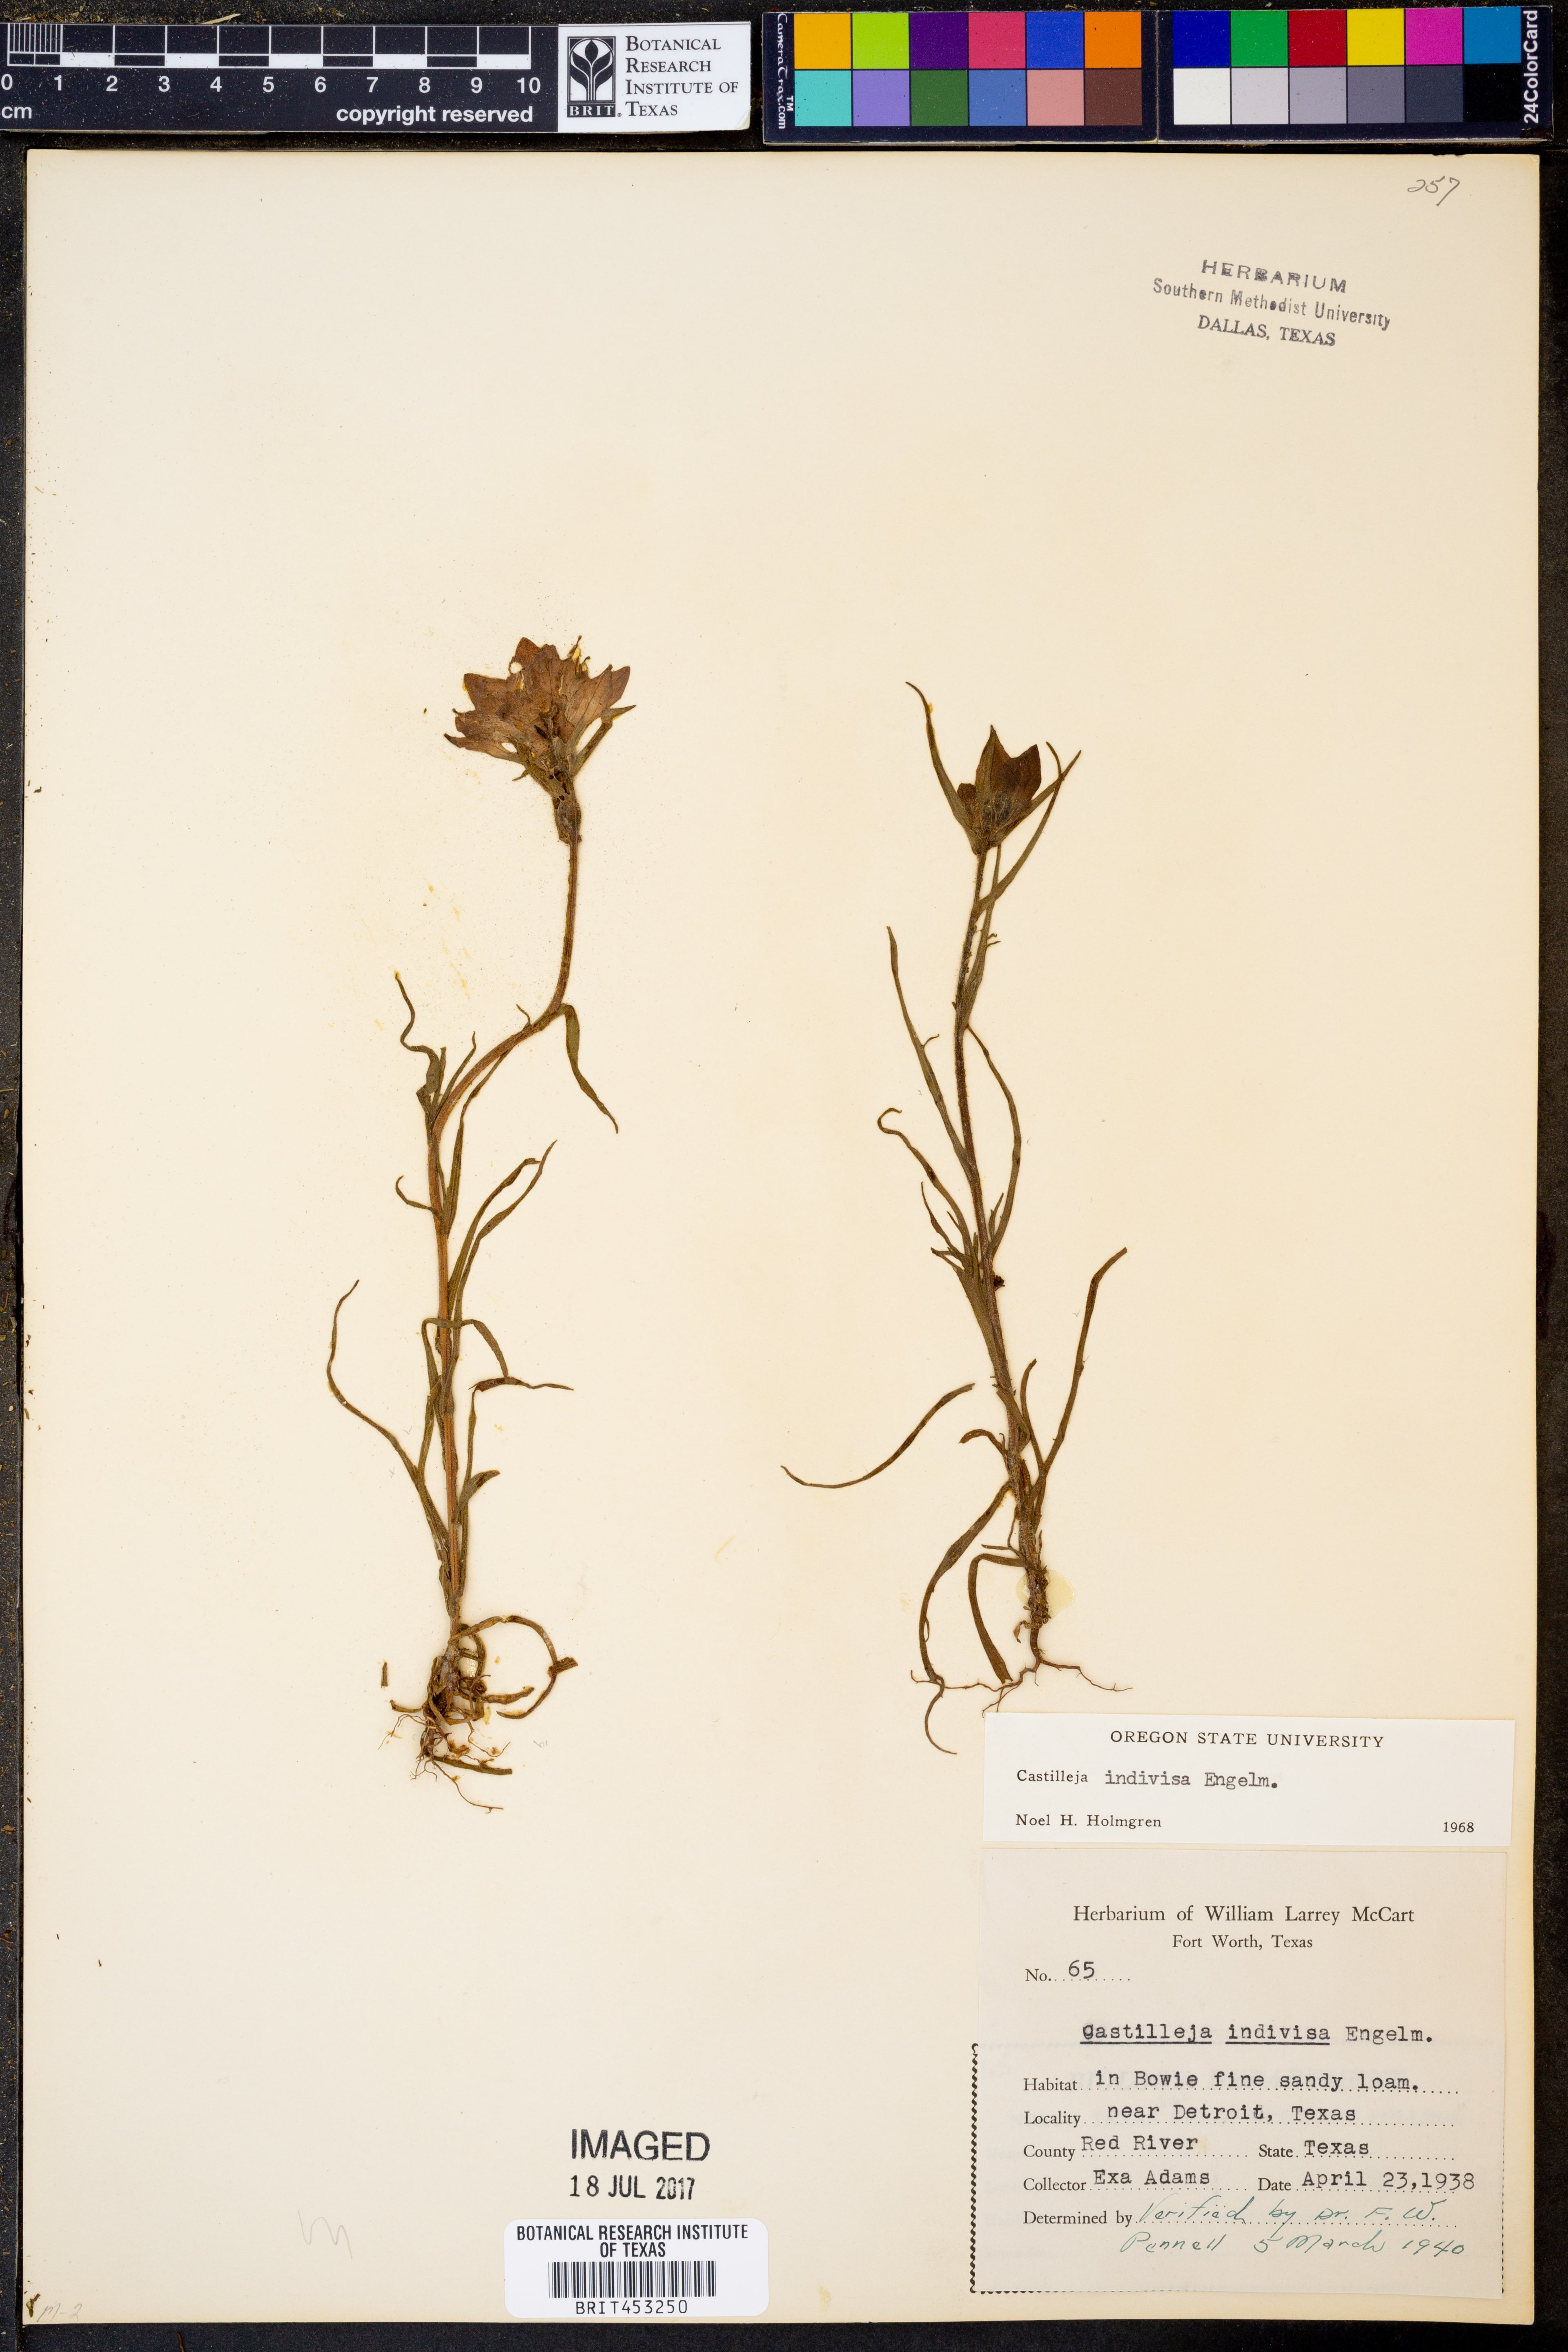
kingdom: Plantae
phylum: Tracheophyta
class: Magnoliopsida
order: Lamiales
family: Orobanchaceae
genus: Castilleja
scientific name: Castilleja indivisa
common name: Texas paintbrush
